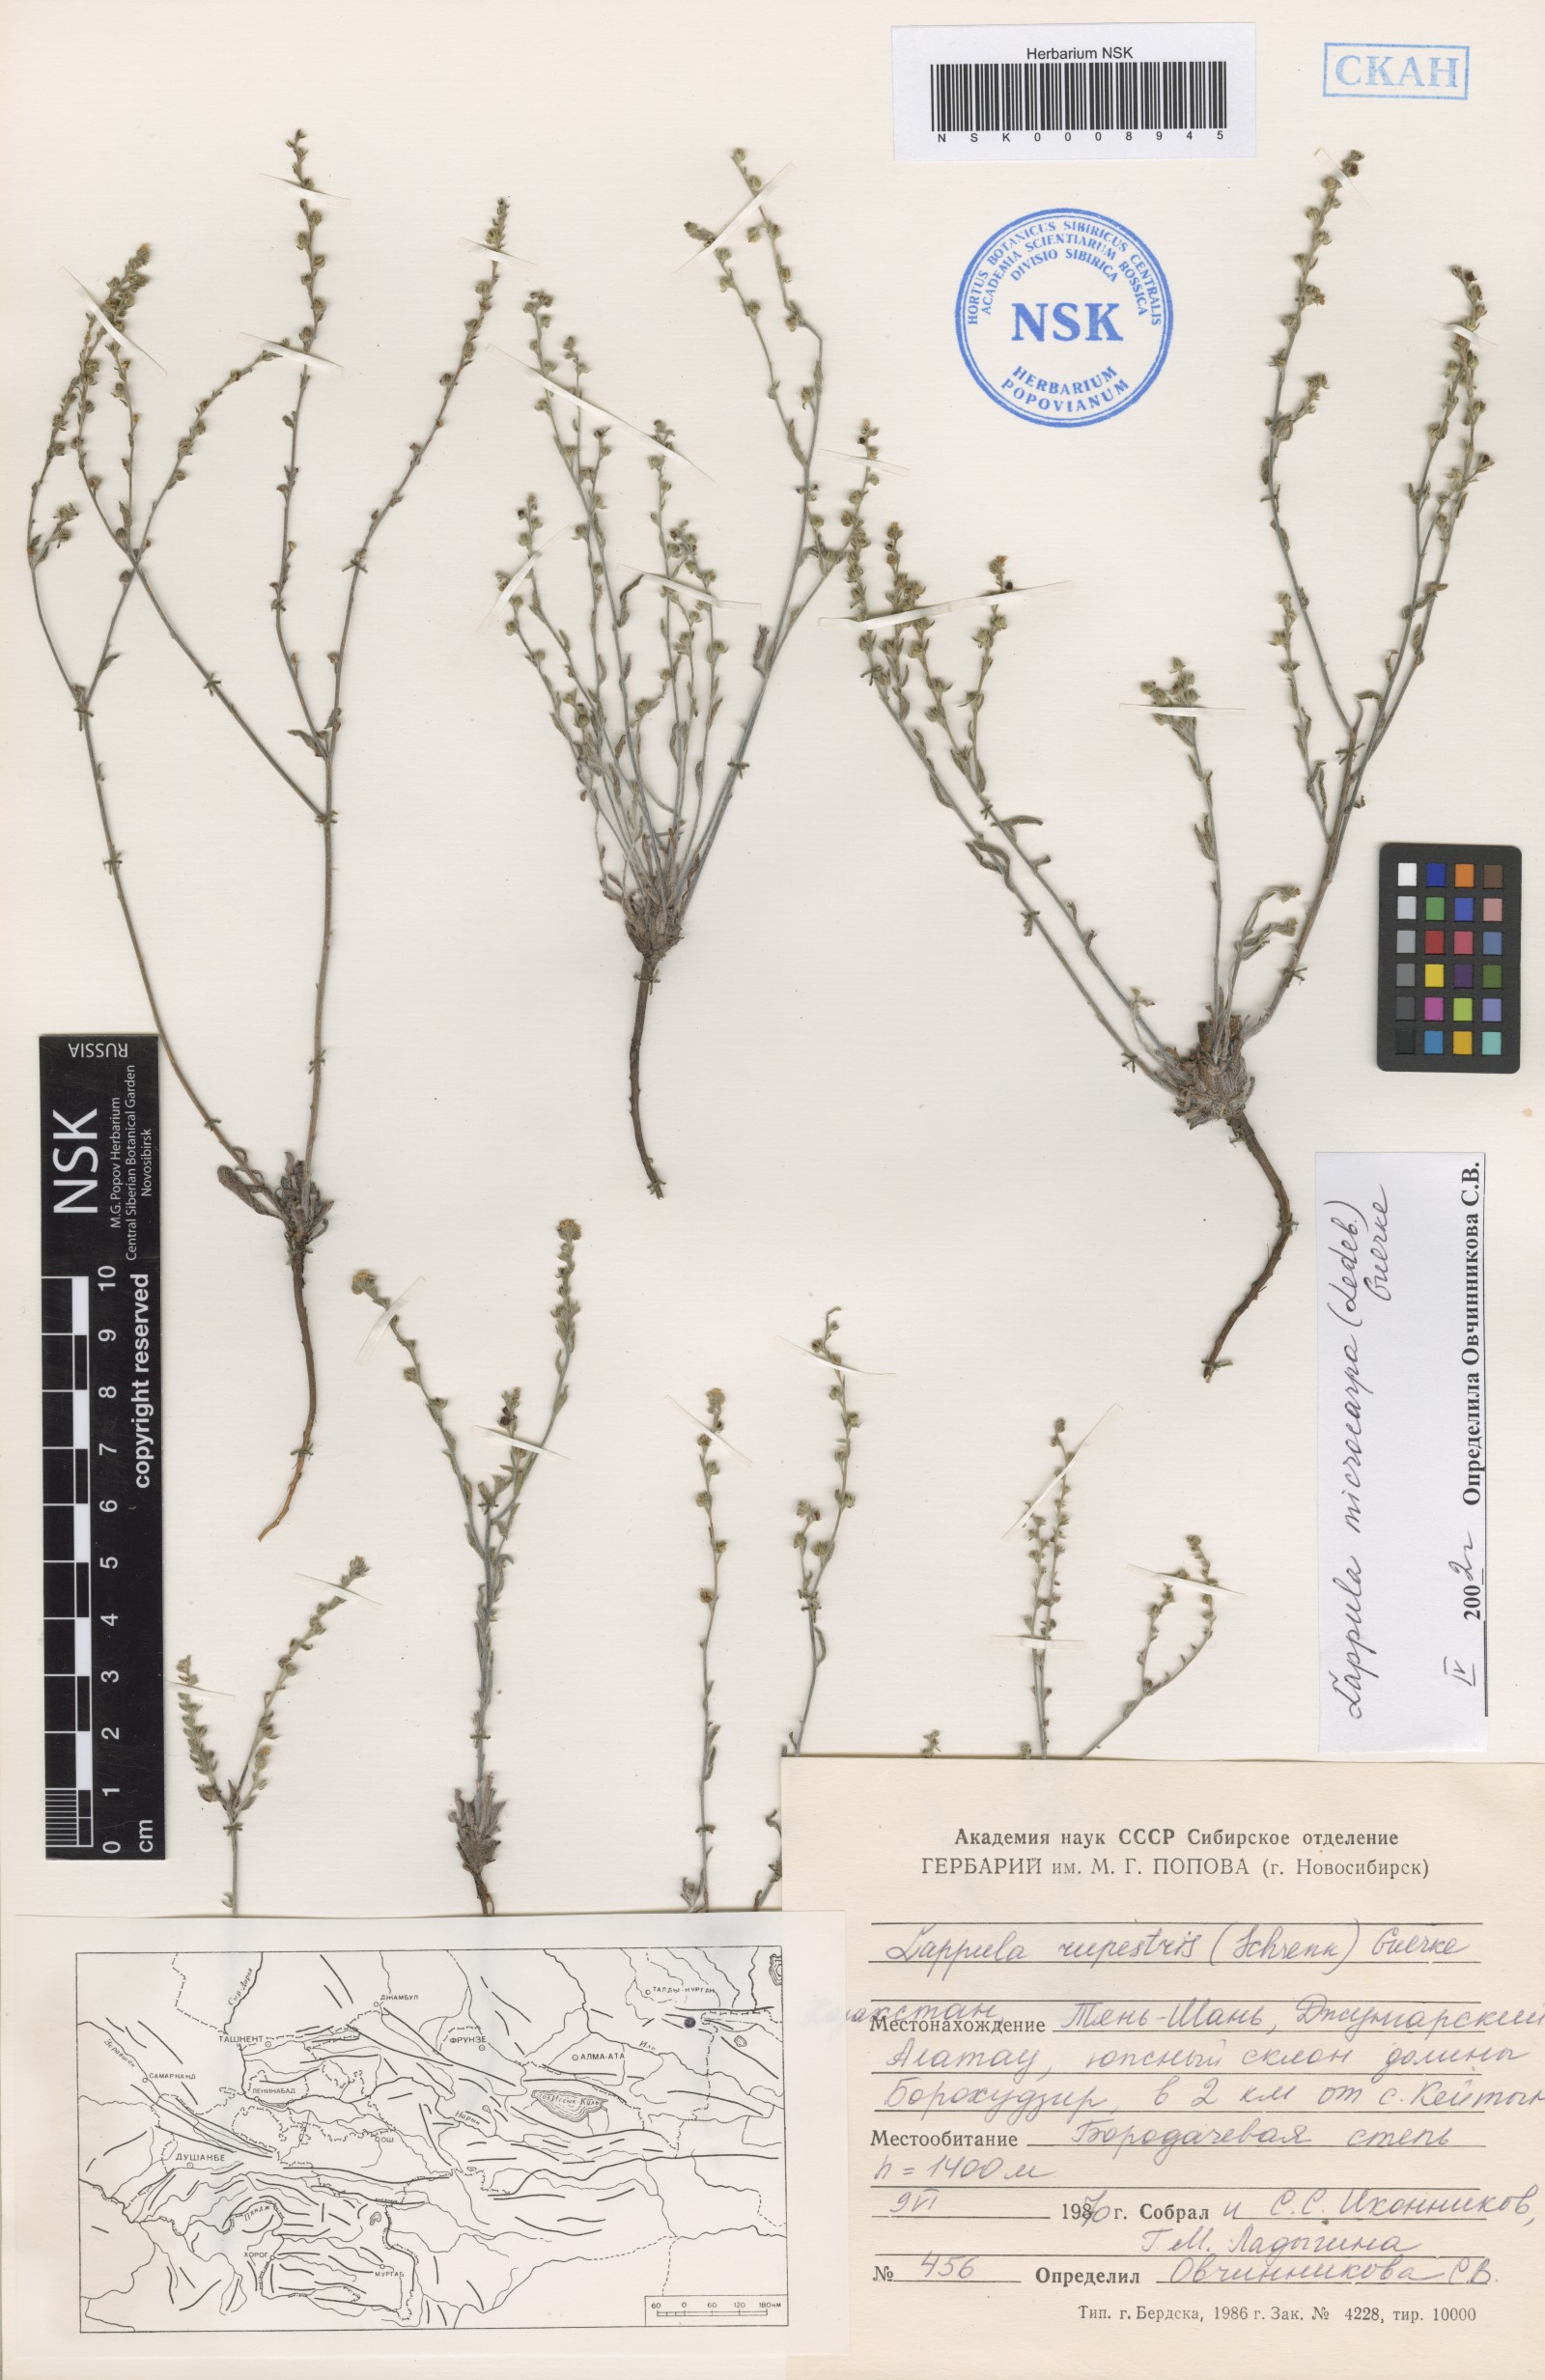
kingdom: Plantae
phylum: Tracheophyta
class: Magnoliopsida
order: Boraginales
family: Boraginaceae
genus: Lappula
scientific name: Lappula microcarpa
